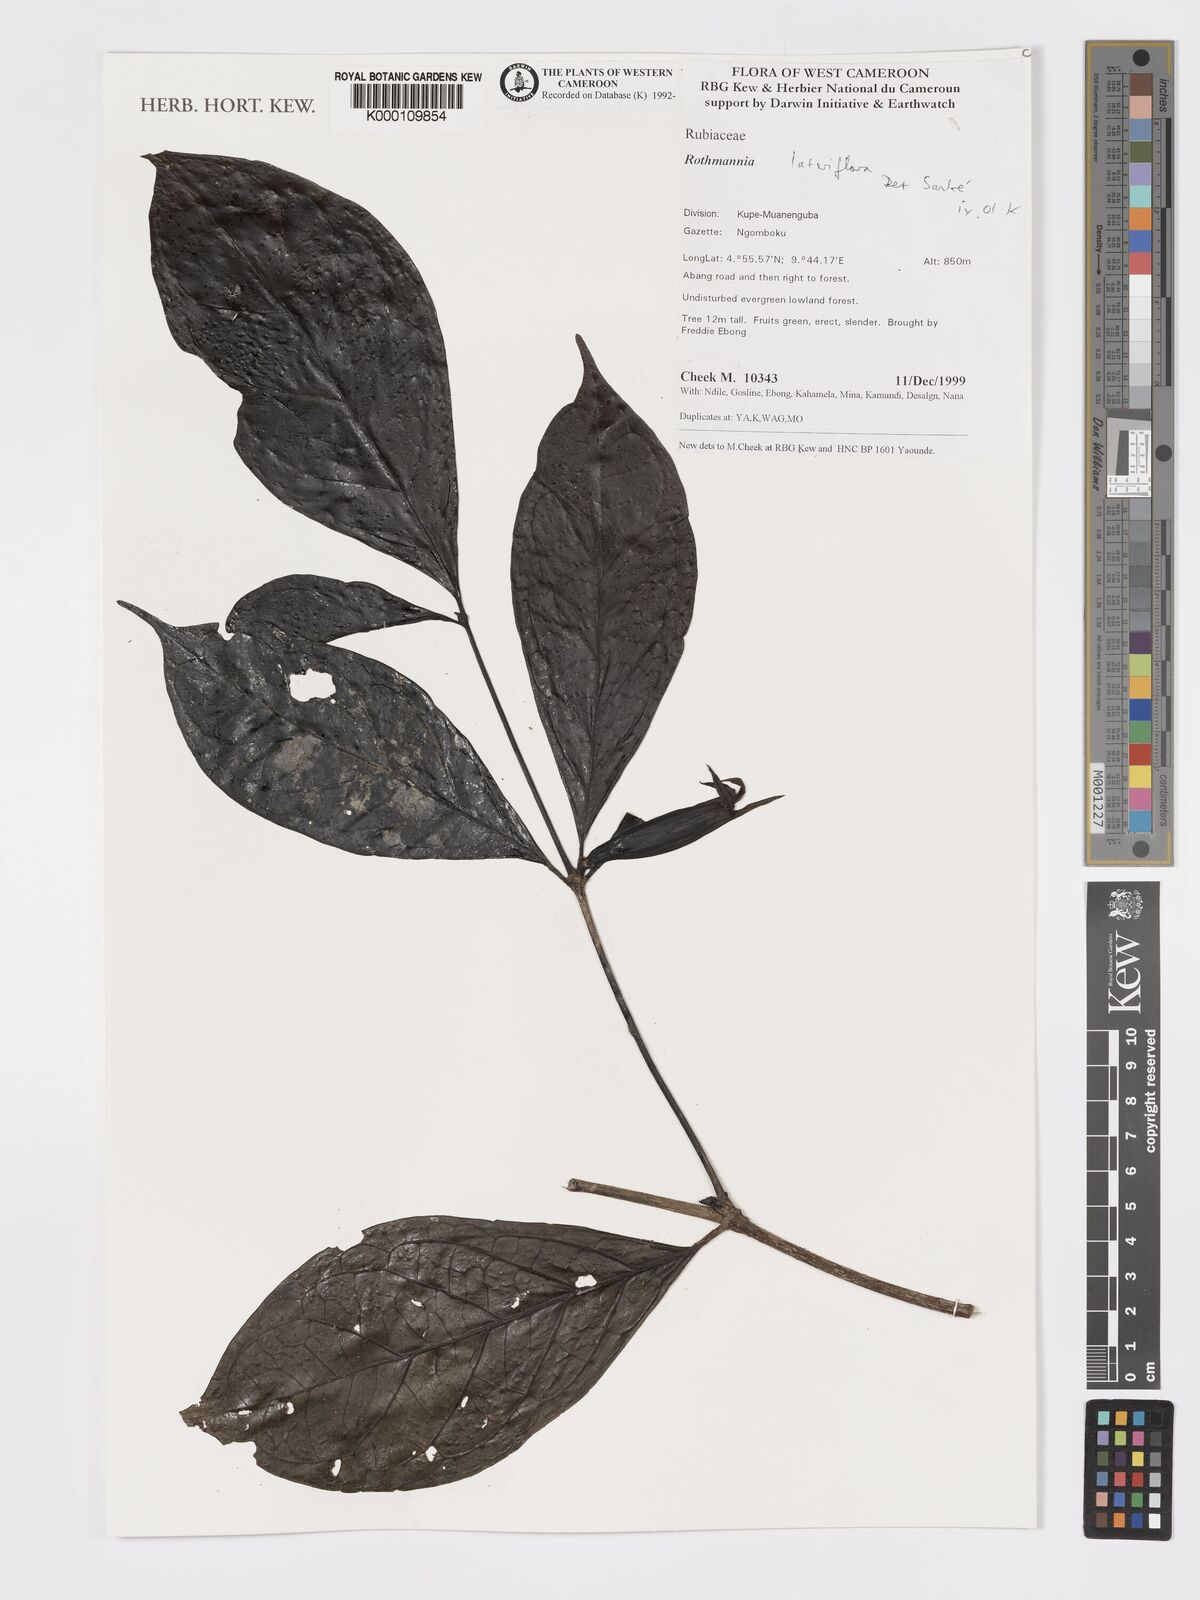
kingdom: Plantae
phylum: Tracheophyta
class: Magnoliopsida
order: Gentianales
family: Rubiaceae
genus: Rothmannia
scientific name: Rothmannia lateriflora
